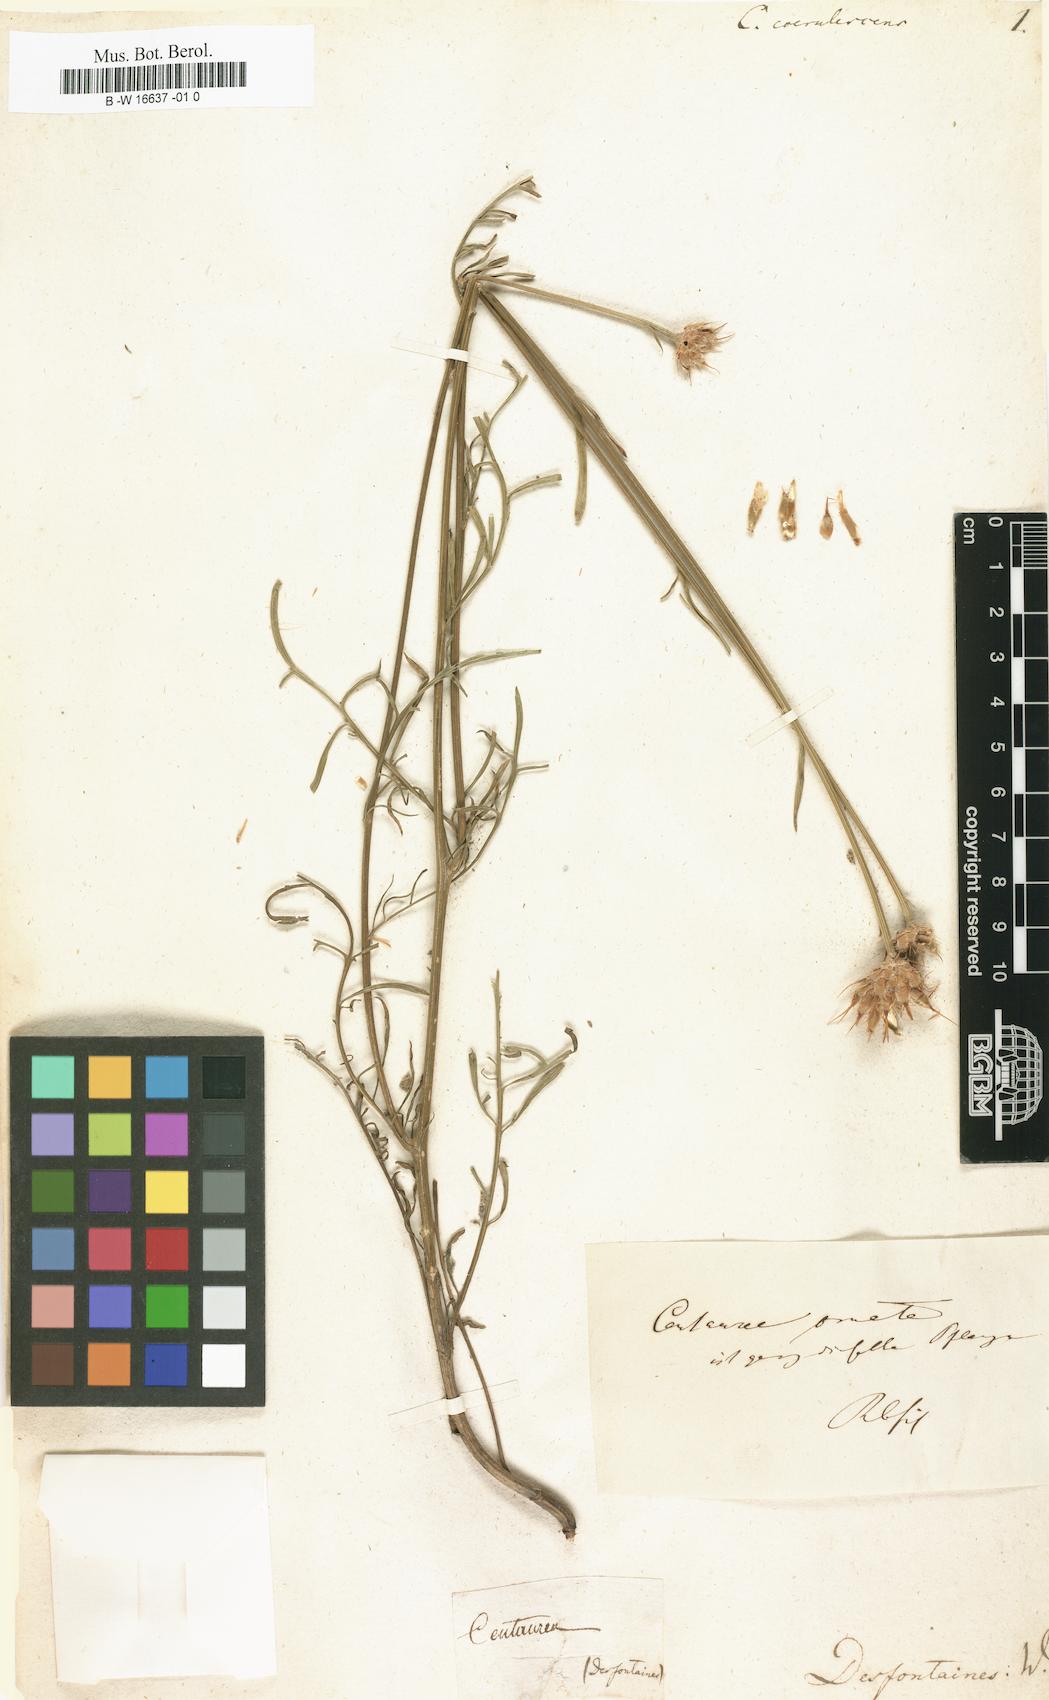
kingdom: Plantae
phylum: Tracheophyta
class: Magnoliopsida
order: Asterales
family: Asteraceae
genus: Centaurea
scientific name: Centaurea hanryi
